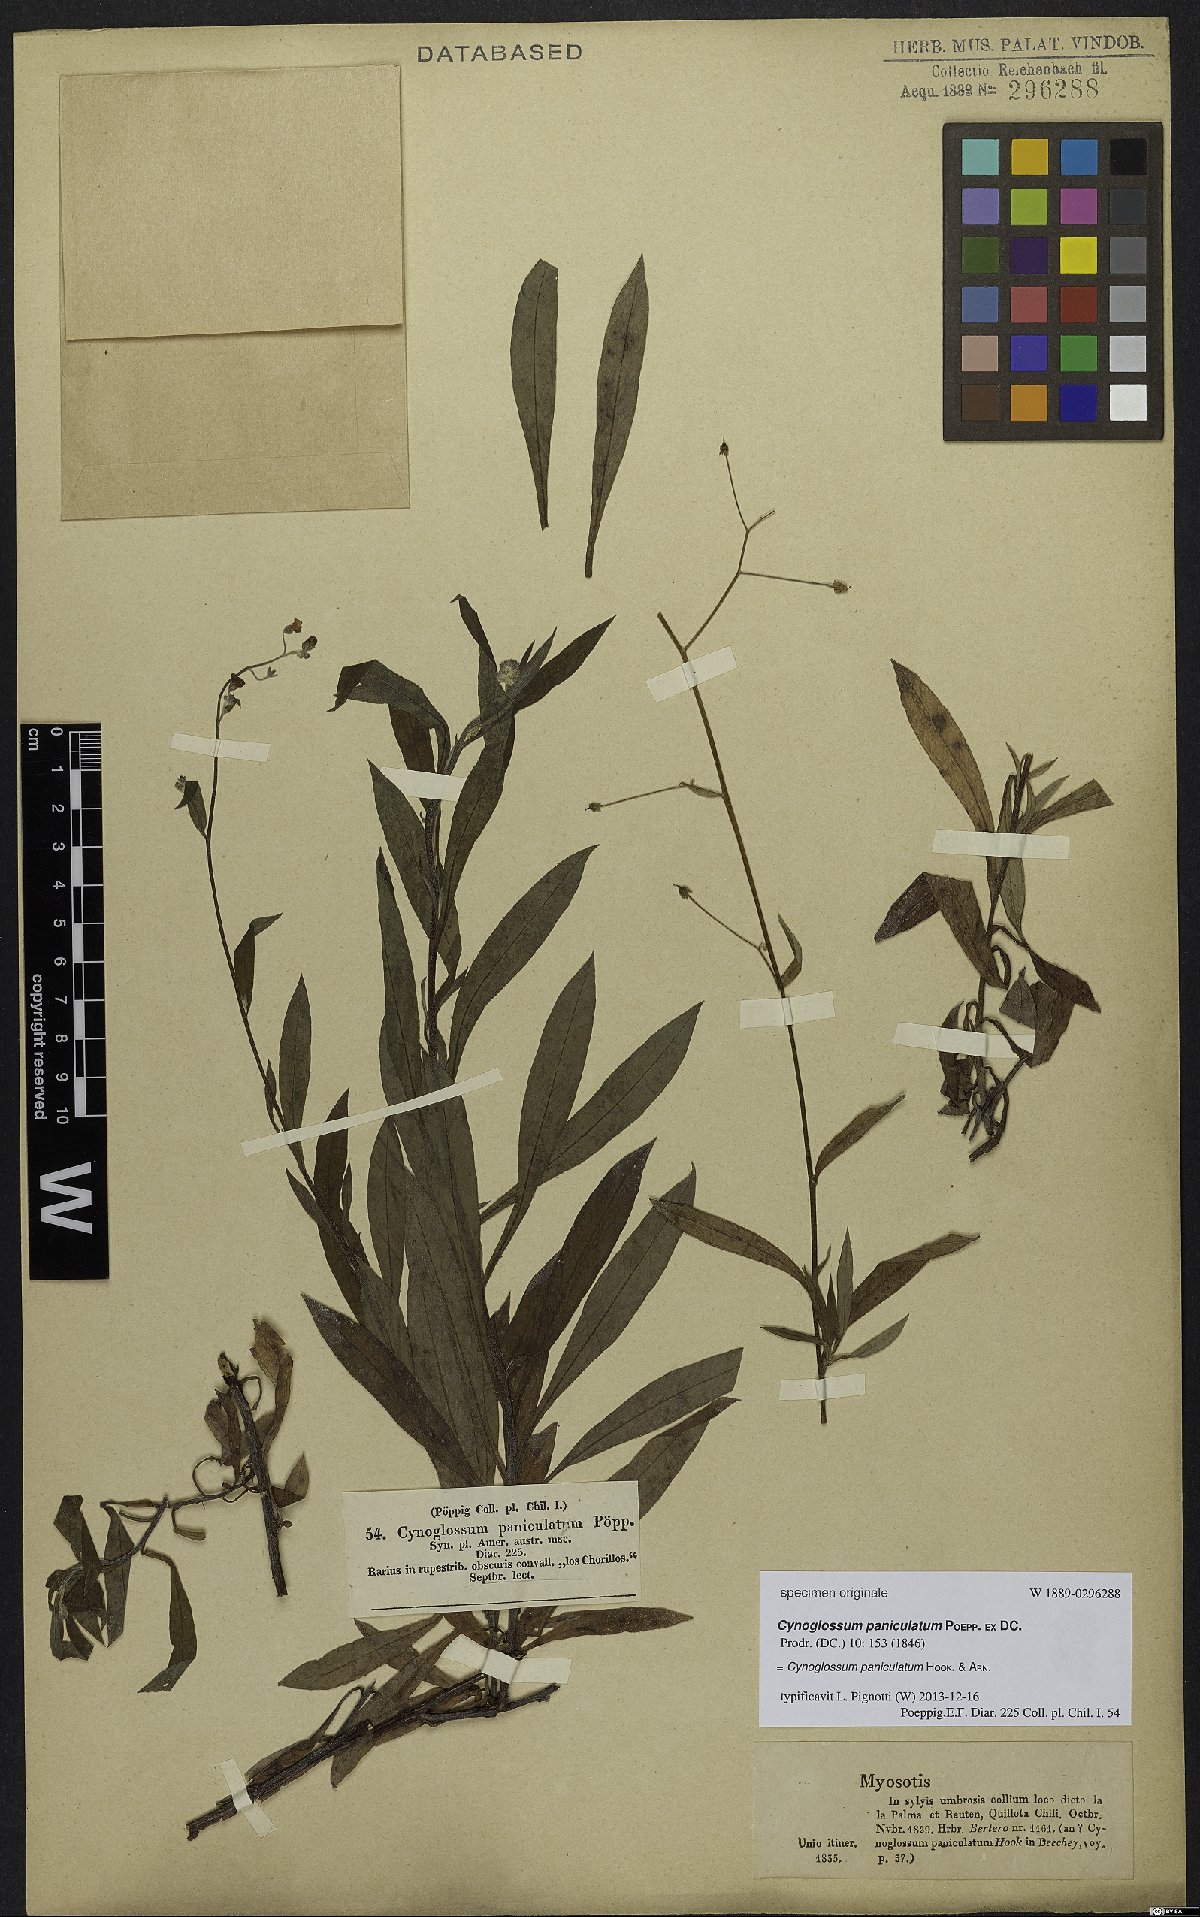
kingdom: Plantae
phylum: Tracheophyta
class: Magnoliopsida
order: Boraginales
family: Boraginaceae
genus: Selkirkia
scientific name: Selkirkia pauciflora
